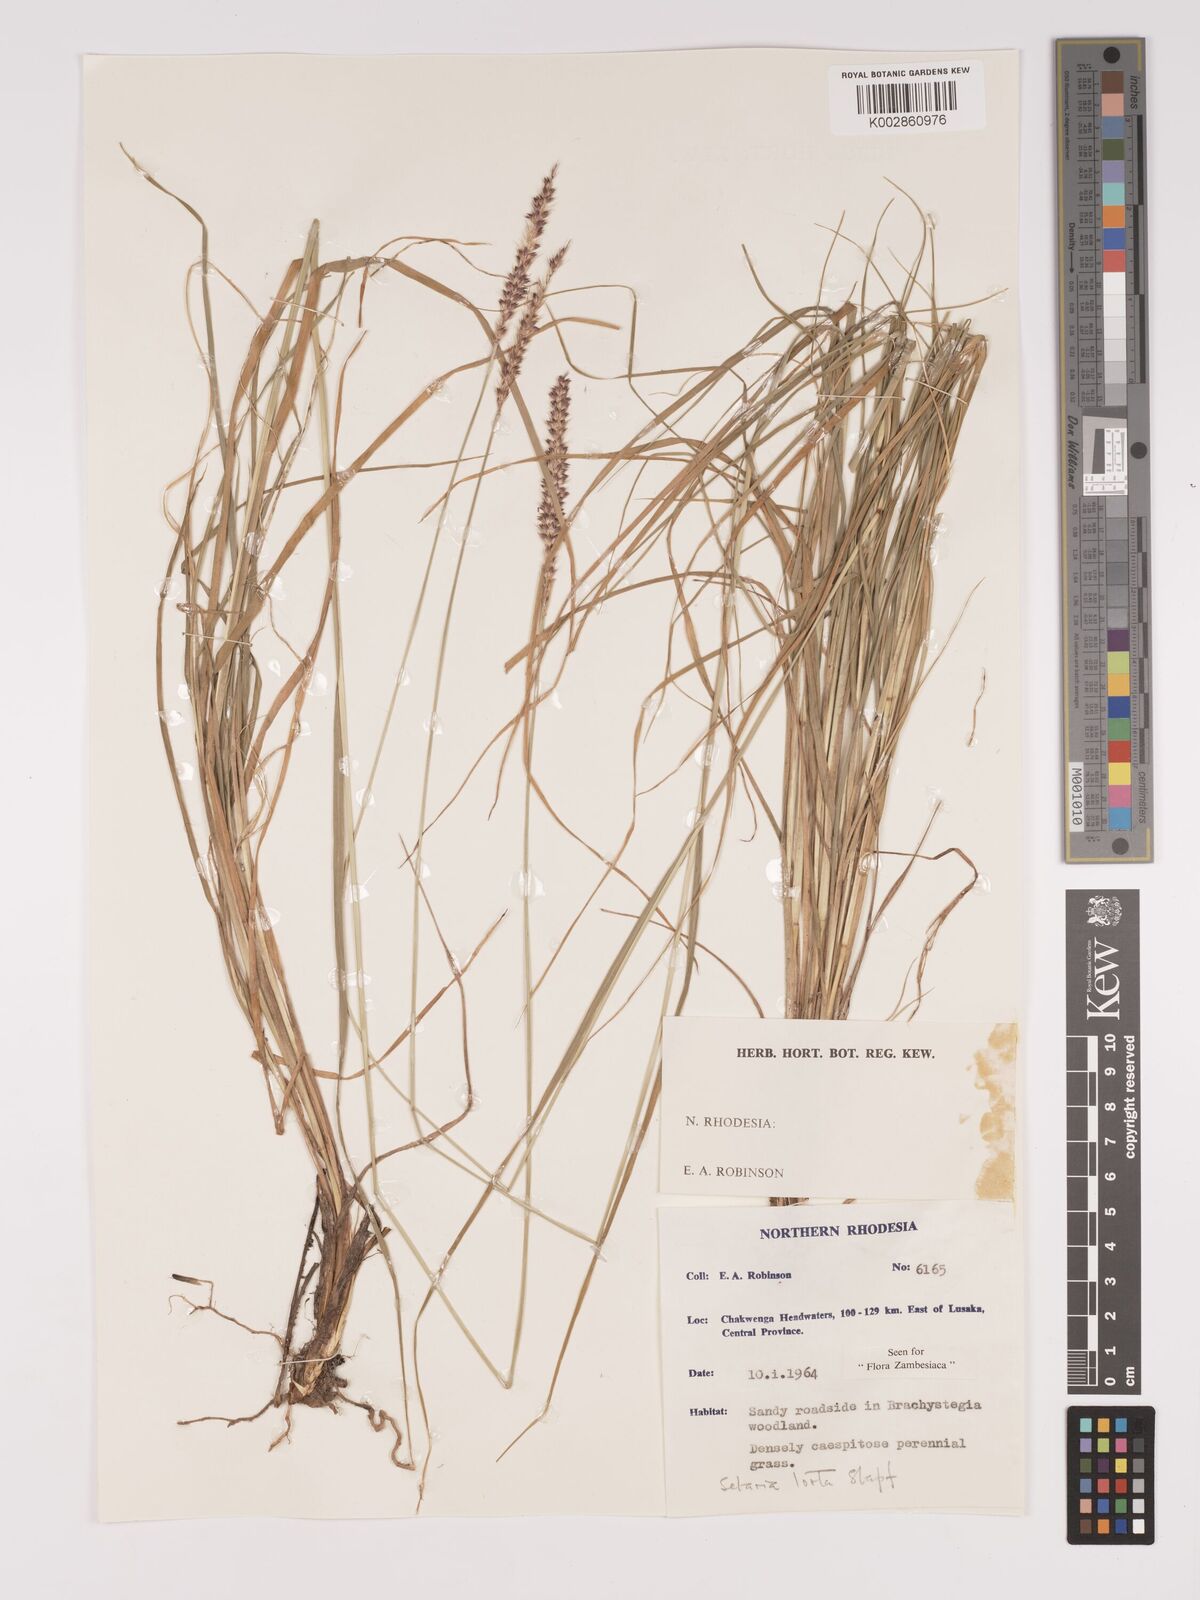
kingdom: Plantae
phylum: Tracheophyta
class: Liliopsida
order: Poales
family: Poaceae
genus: Setaria
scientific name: Setaria
